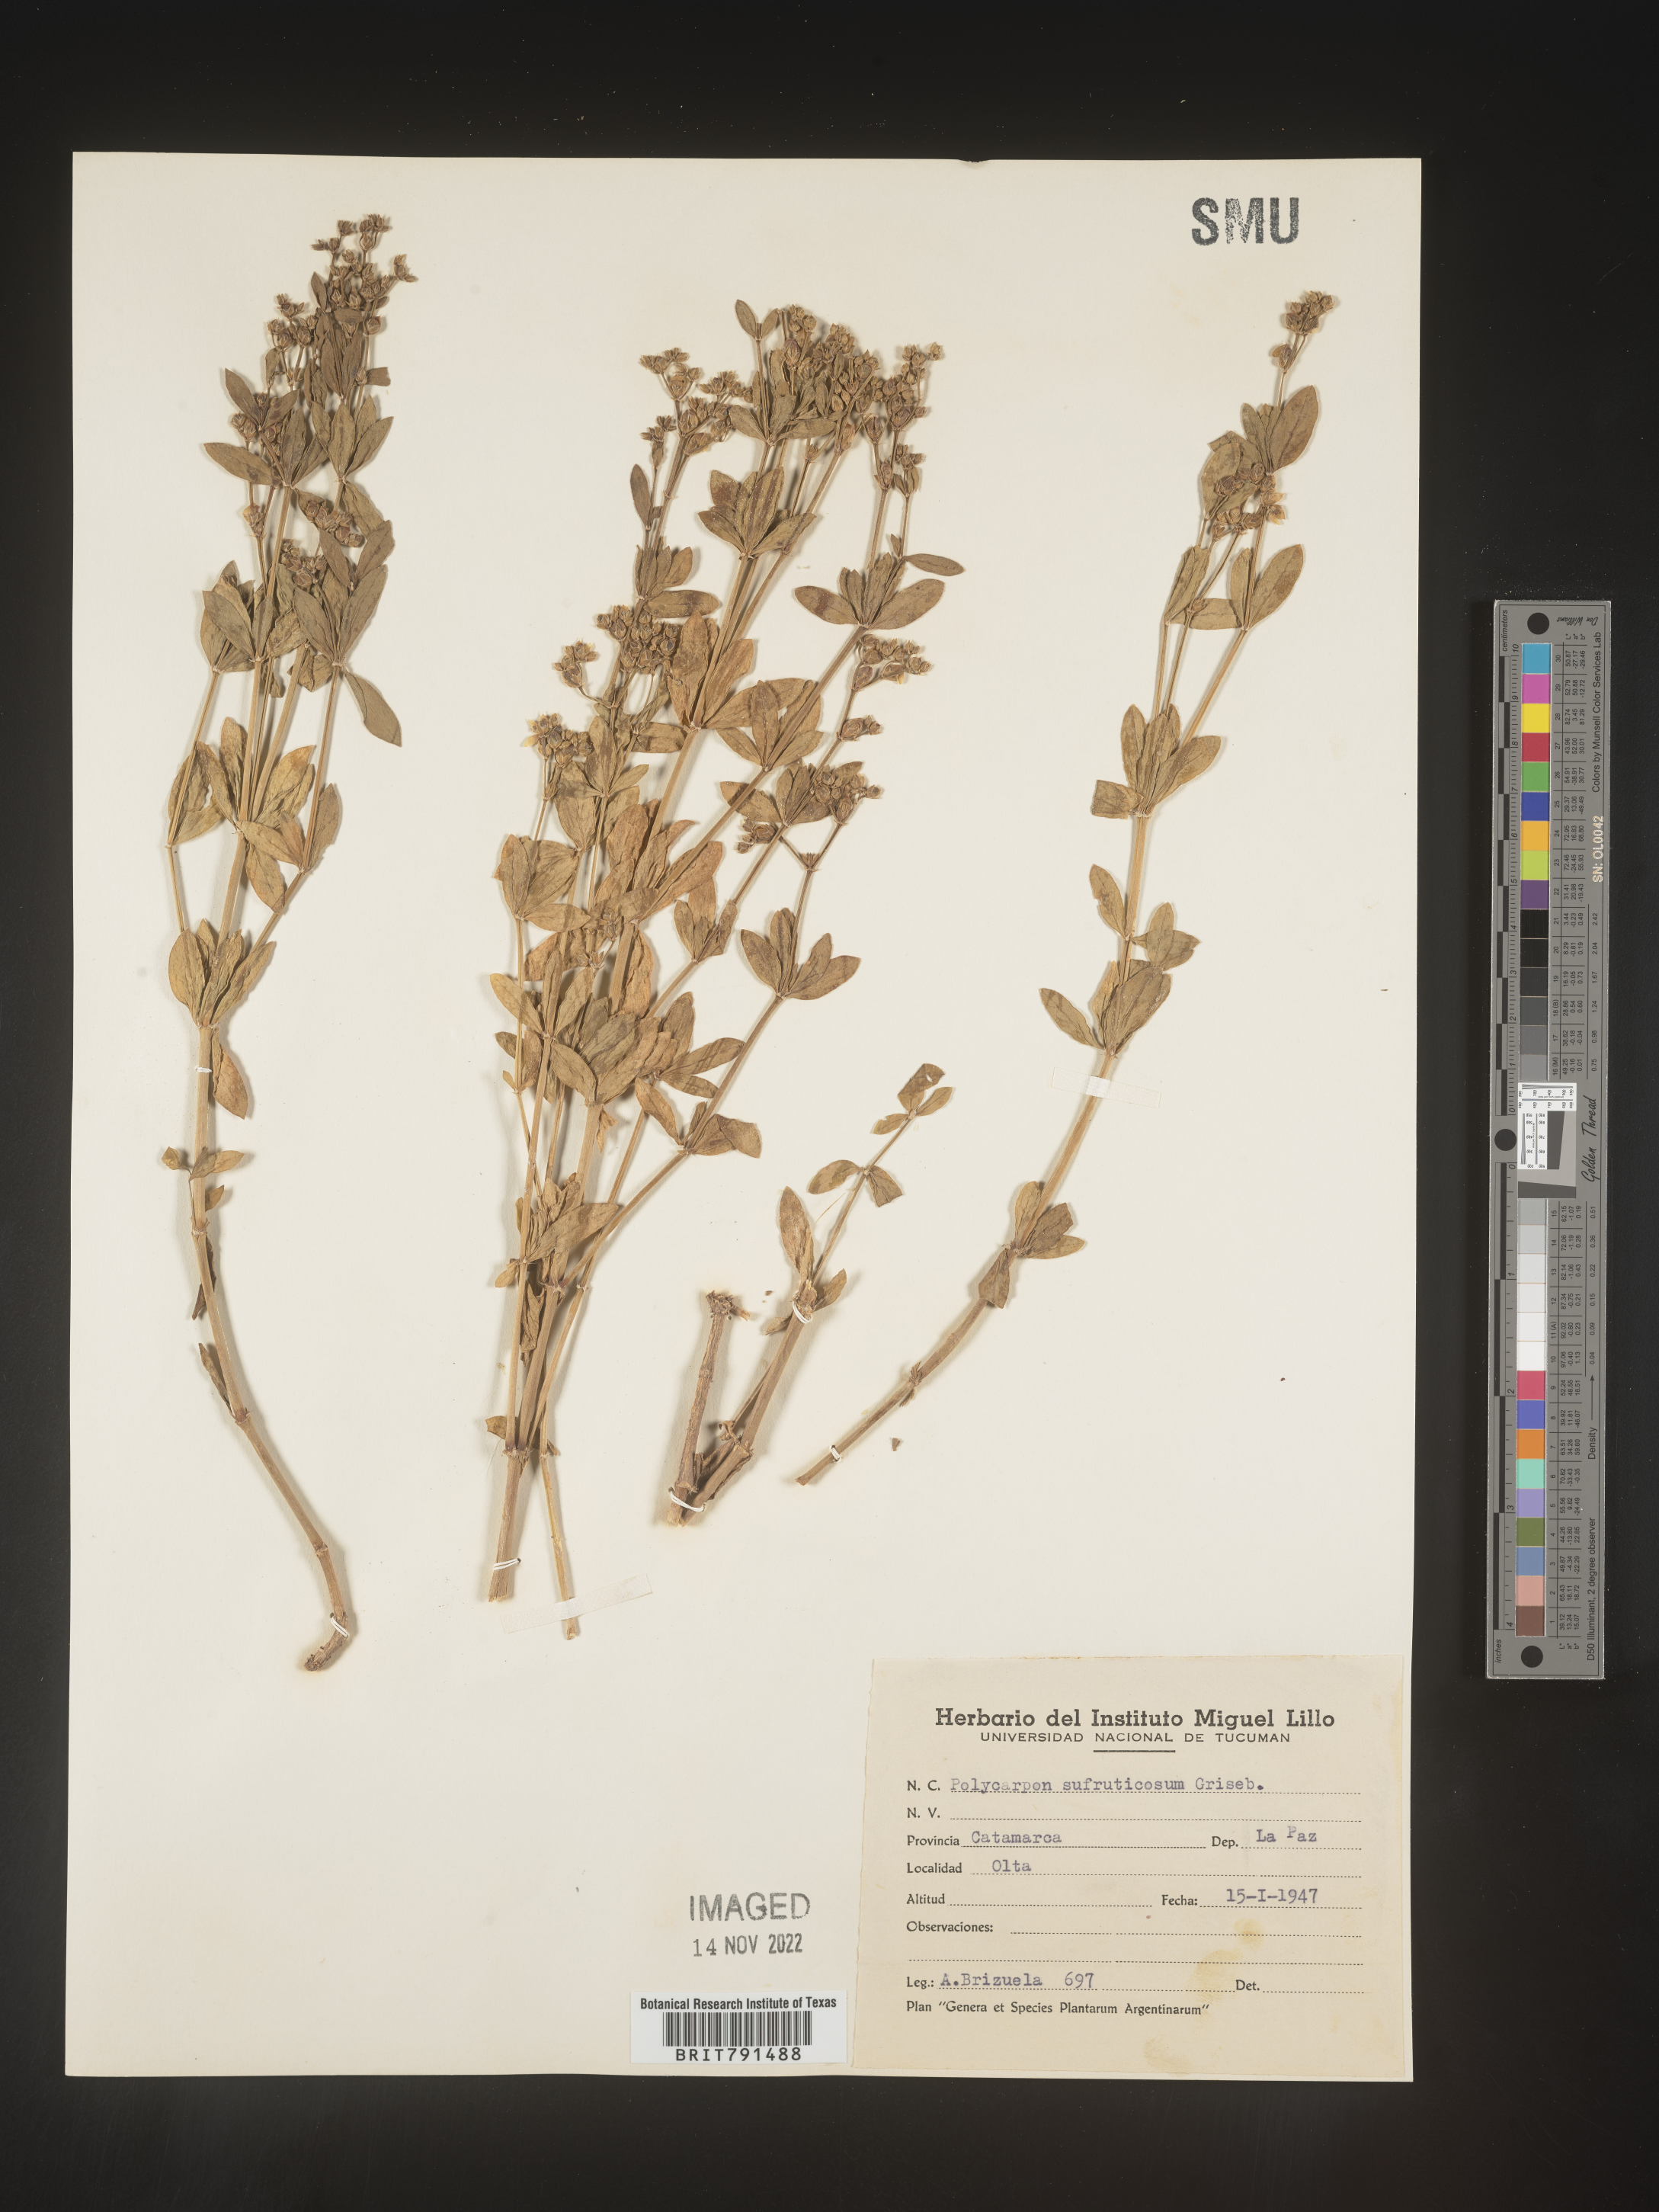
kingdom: Plantae
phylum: Tracheophyta
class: Magnoliopsida
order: Caryophyllales
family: Caryophyllaceae
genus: Polycarpon
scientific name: Polycarpon
